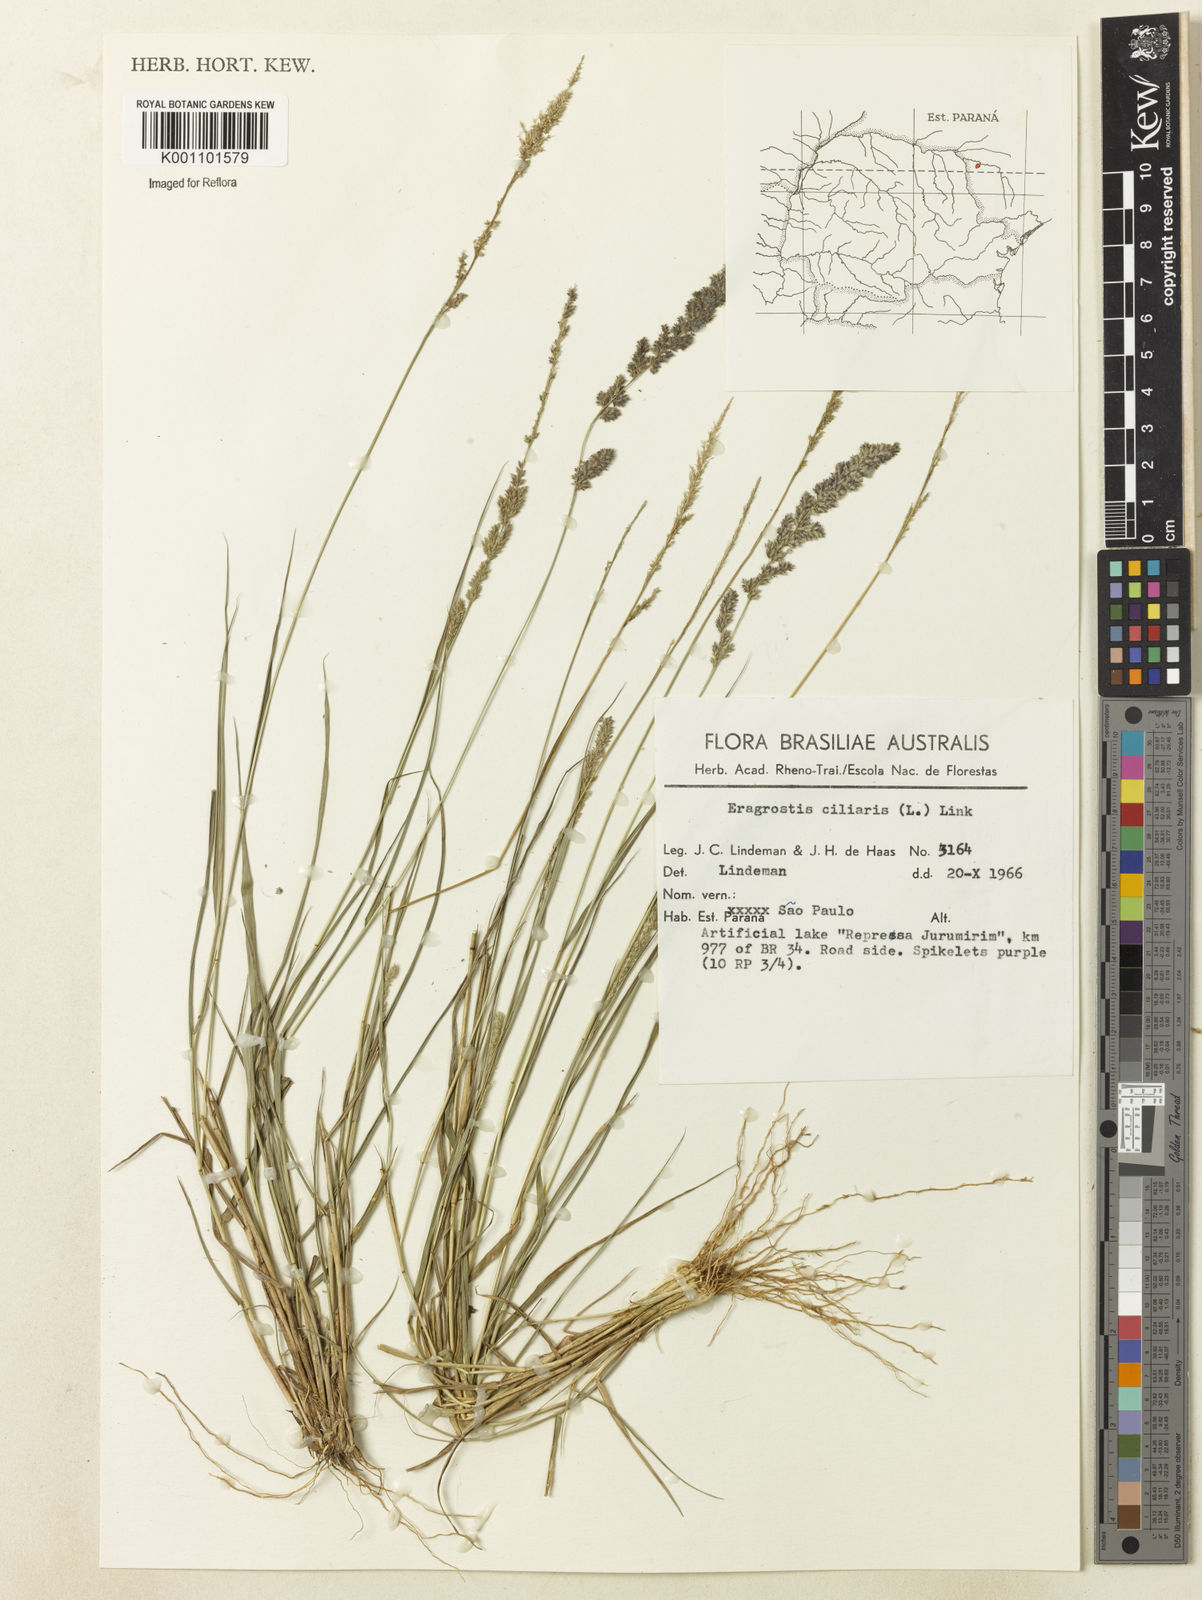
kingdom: Plantae
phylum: Tracheophyta
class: Liliopsida
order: Poales
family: Poaceae
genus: Eragrostis
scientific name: Eragrostis ciliaris
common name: Gophertail lovegrass
